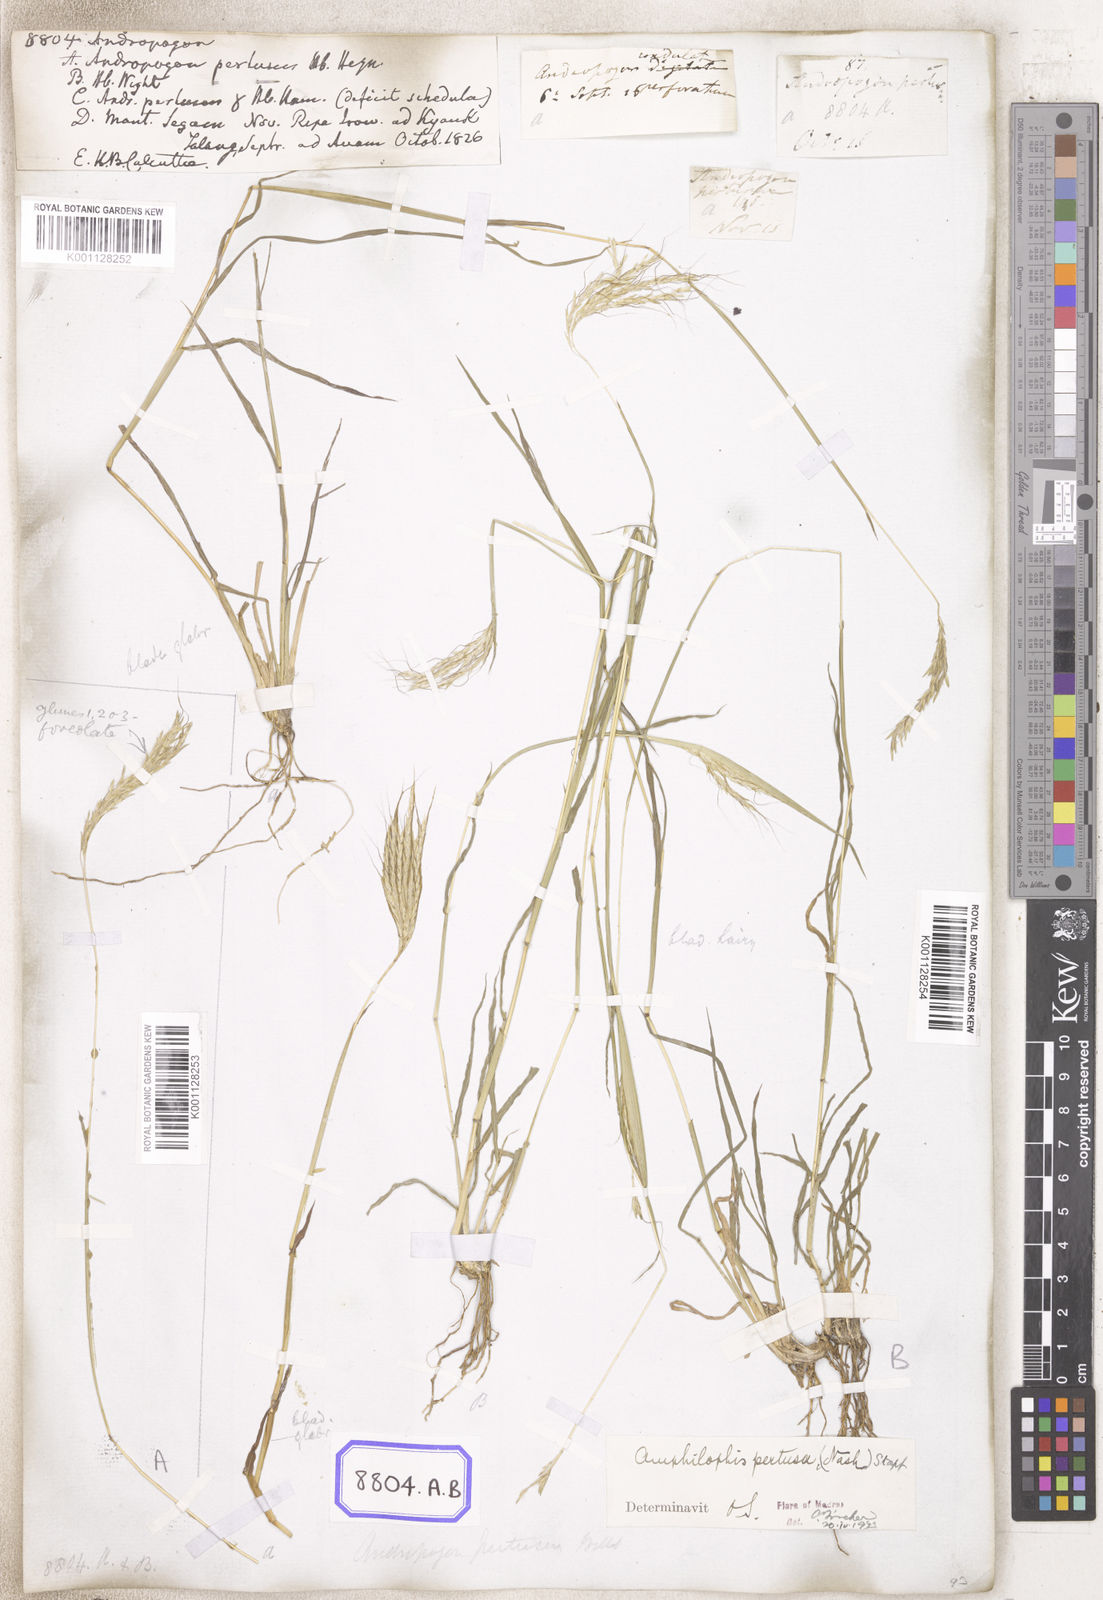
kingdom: Plantae
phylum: Tracheophyta
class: Liliopsida
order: Poales
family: Poaceae
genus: Andropogon
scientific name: Andropogon
